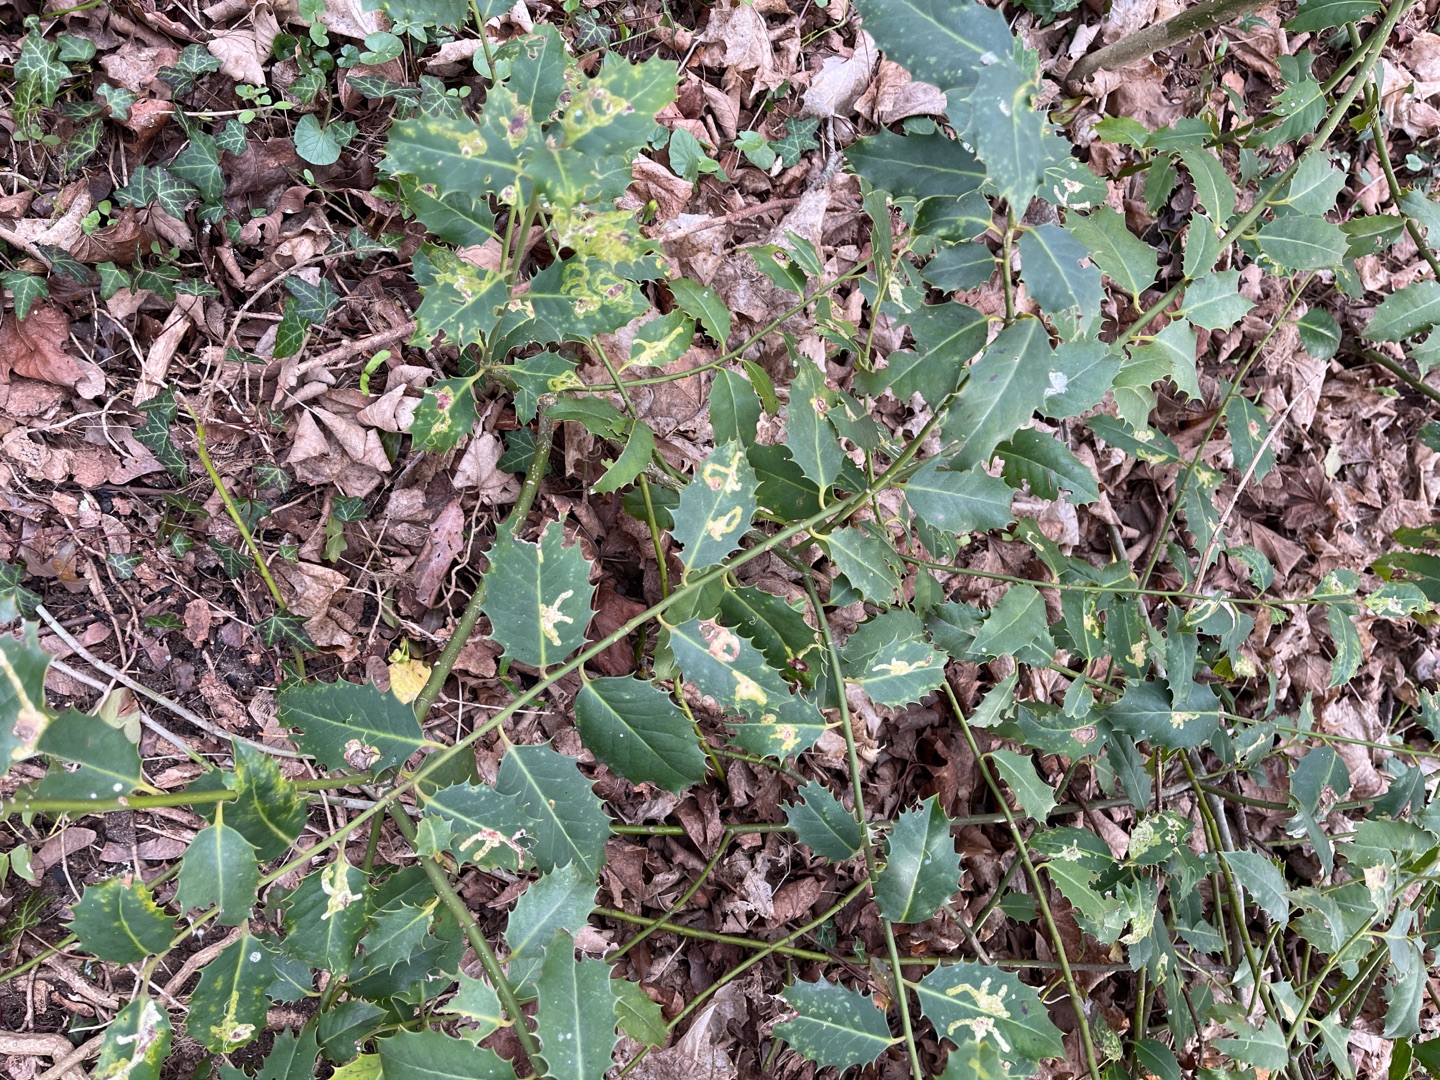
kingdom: Plantae
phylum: Tracheophyta
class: Magnoliopsida
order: Aquifoliales
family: Aquifoliaceae
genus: Ilex
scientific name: Ilex aquifolium
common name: Kristtorn
